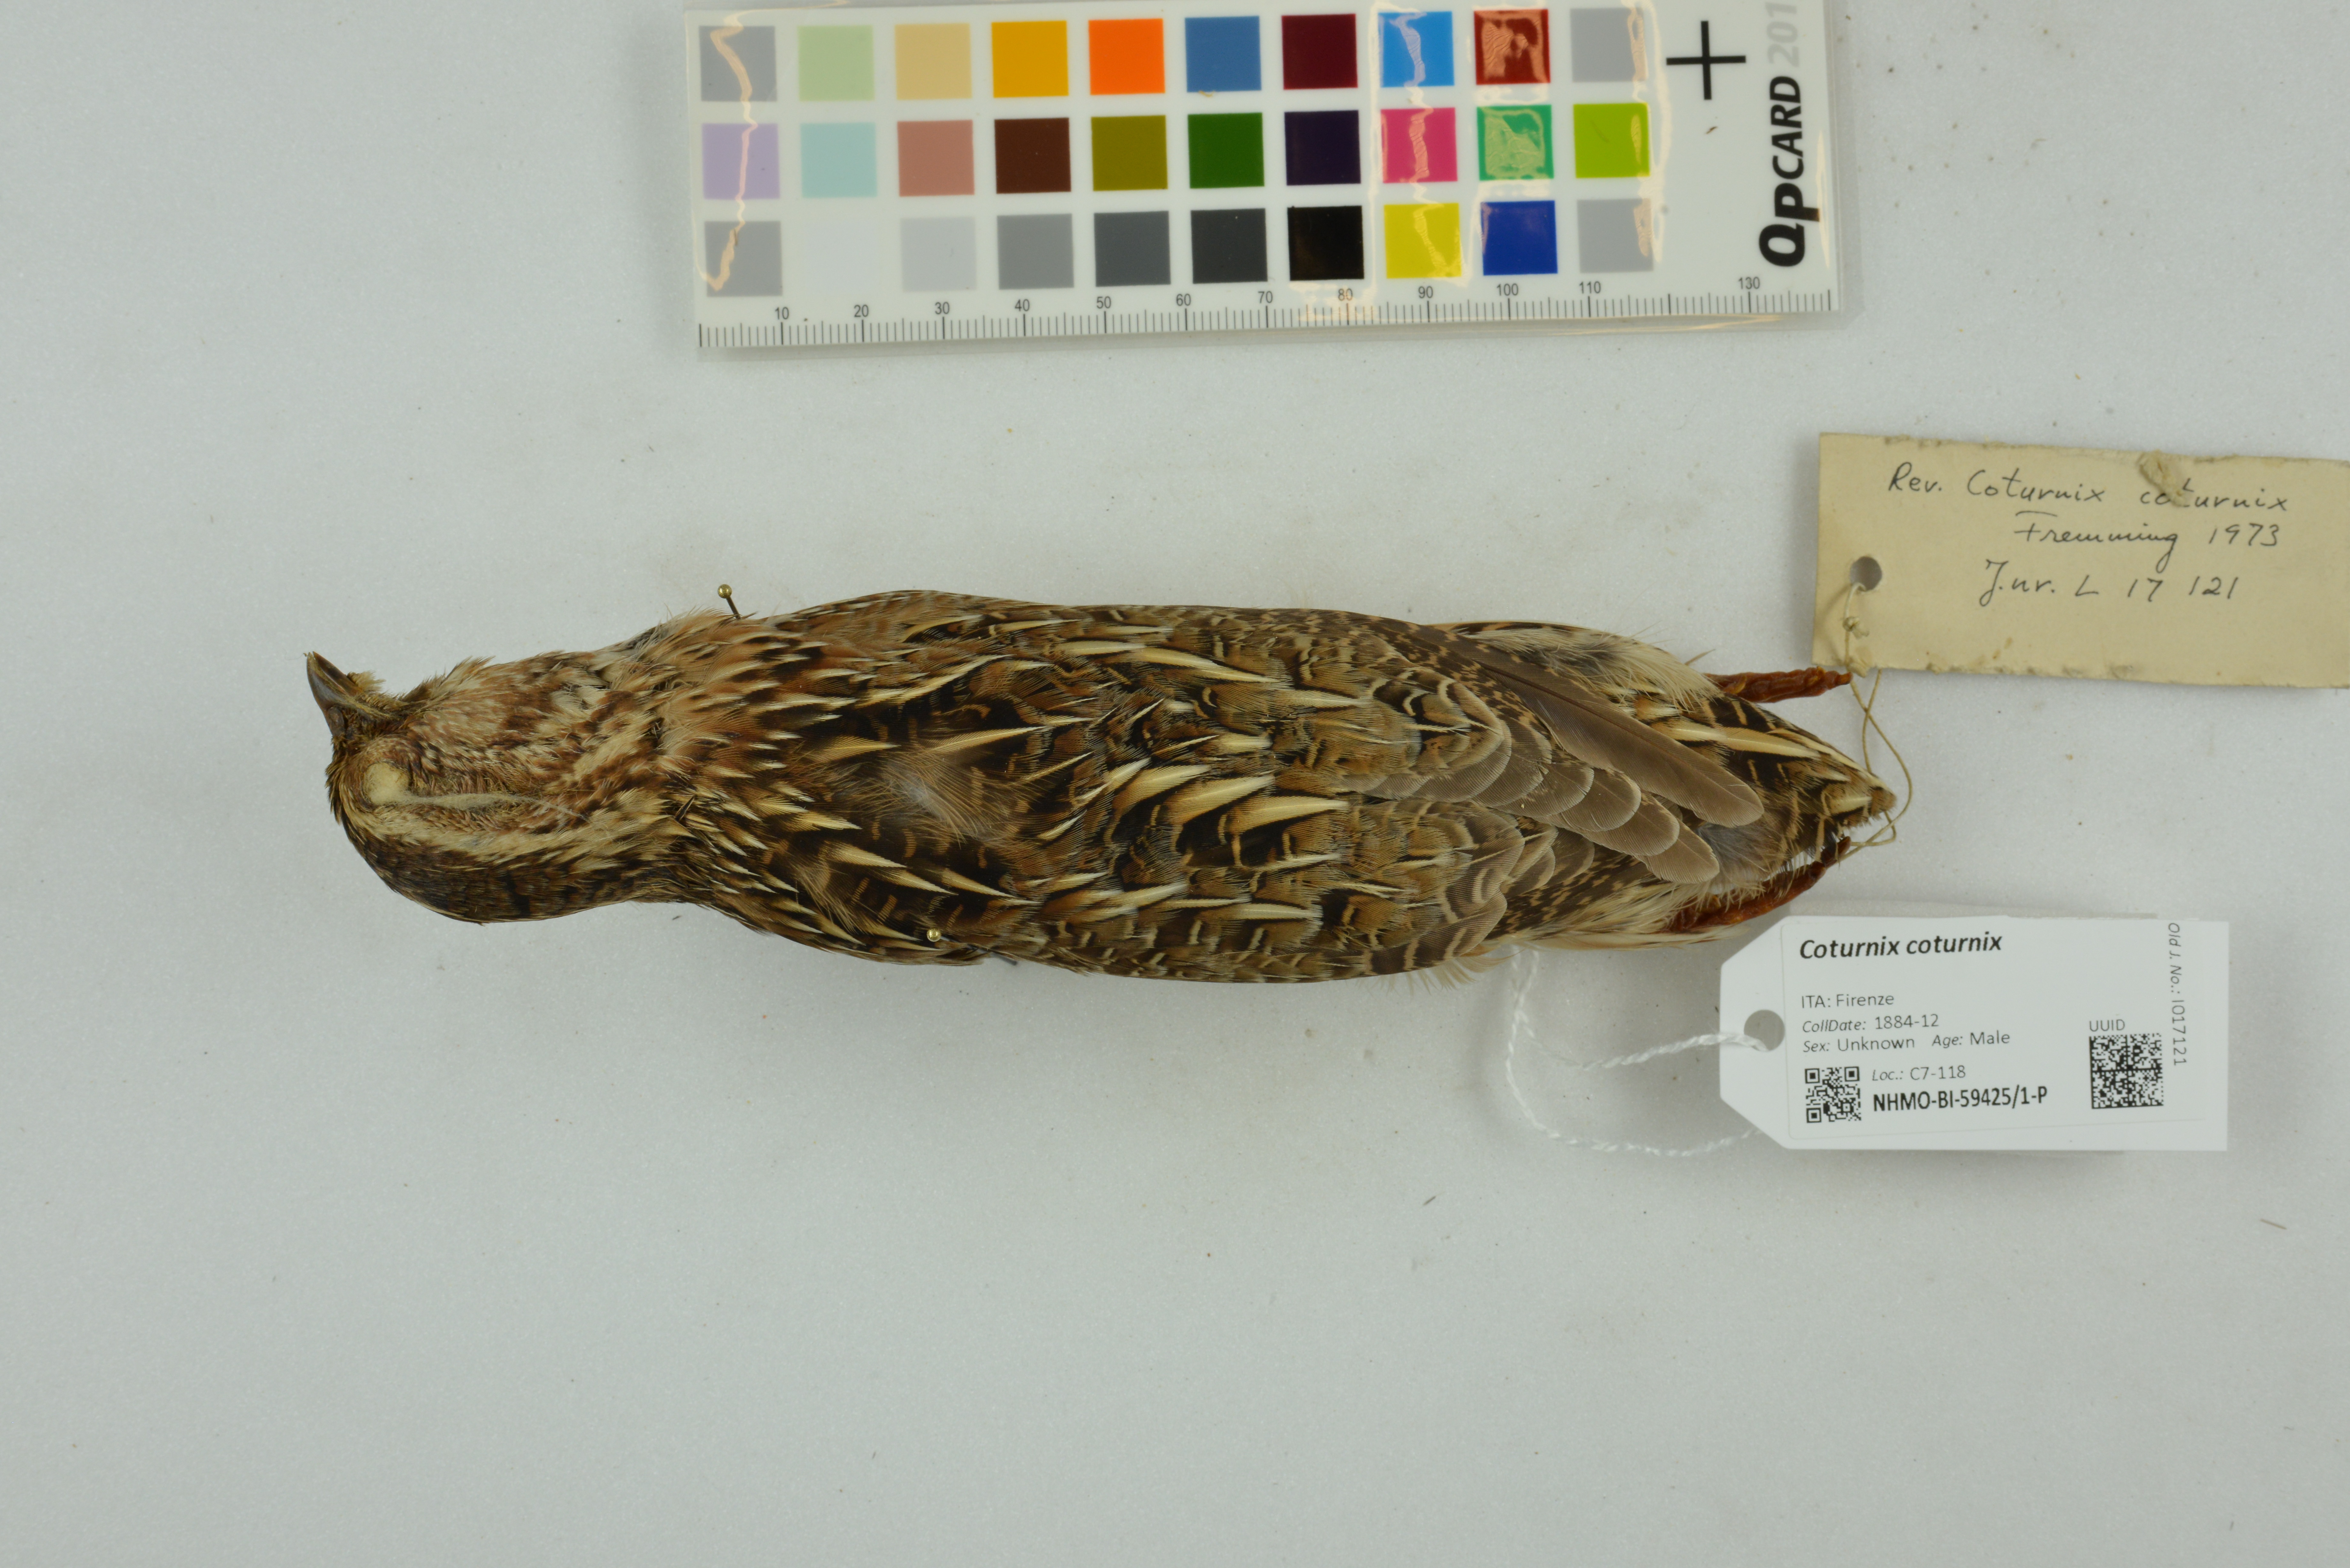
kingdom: Animalia
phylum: Chordata
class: Aves
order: Galliformes
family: Phasianidae
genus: Coturnix
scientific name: Coturnix coturnix
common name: Common quail
